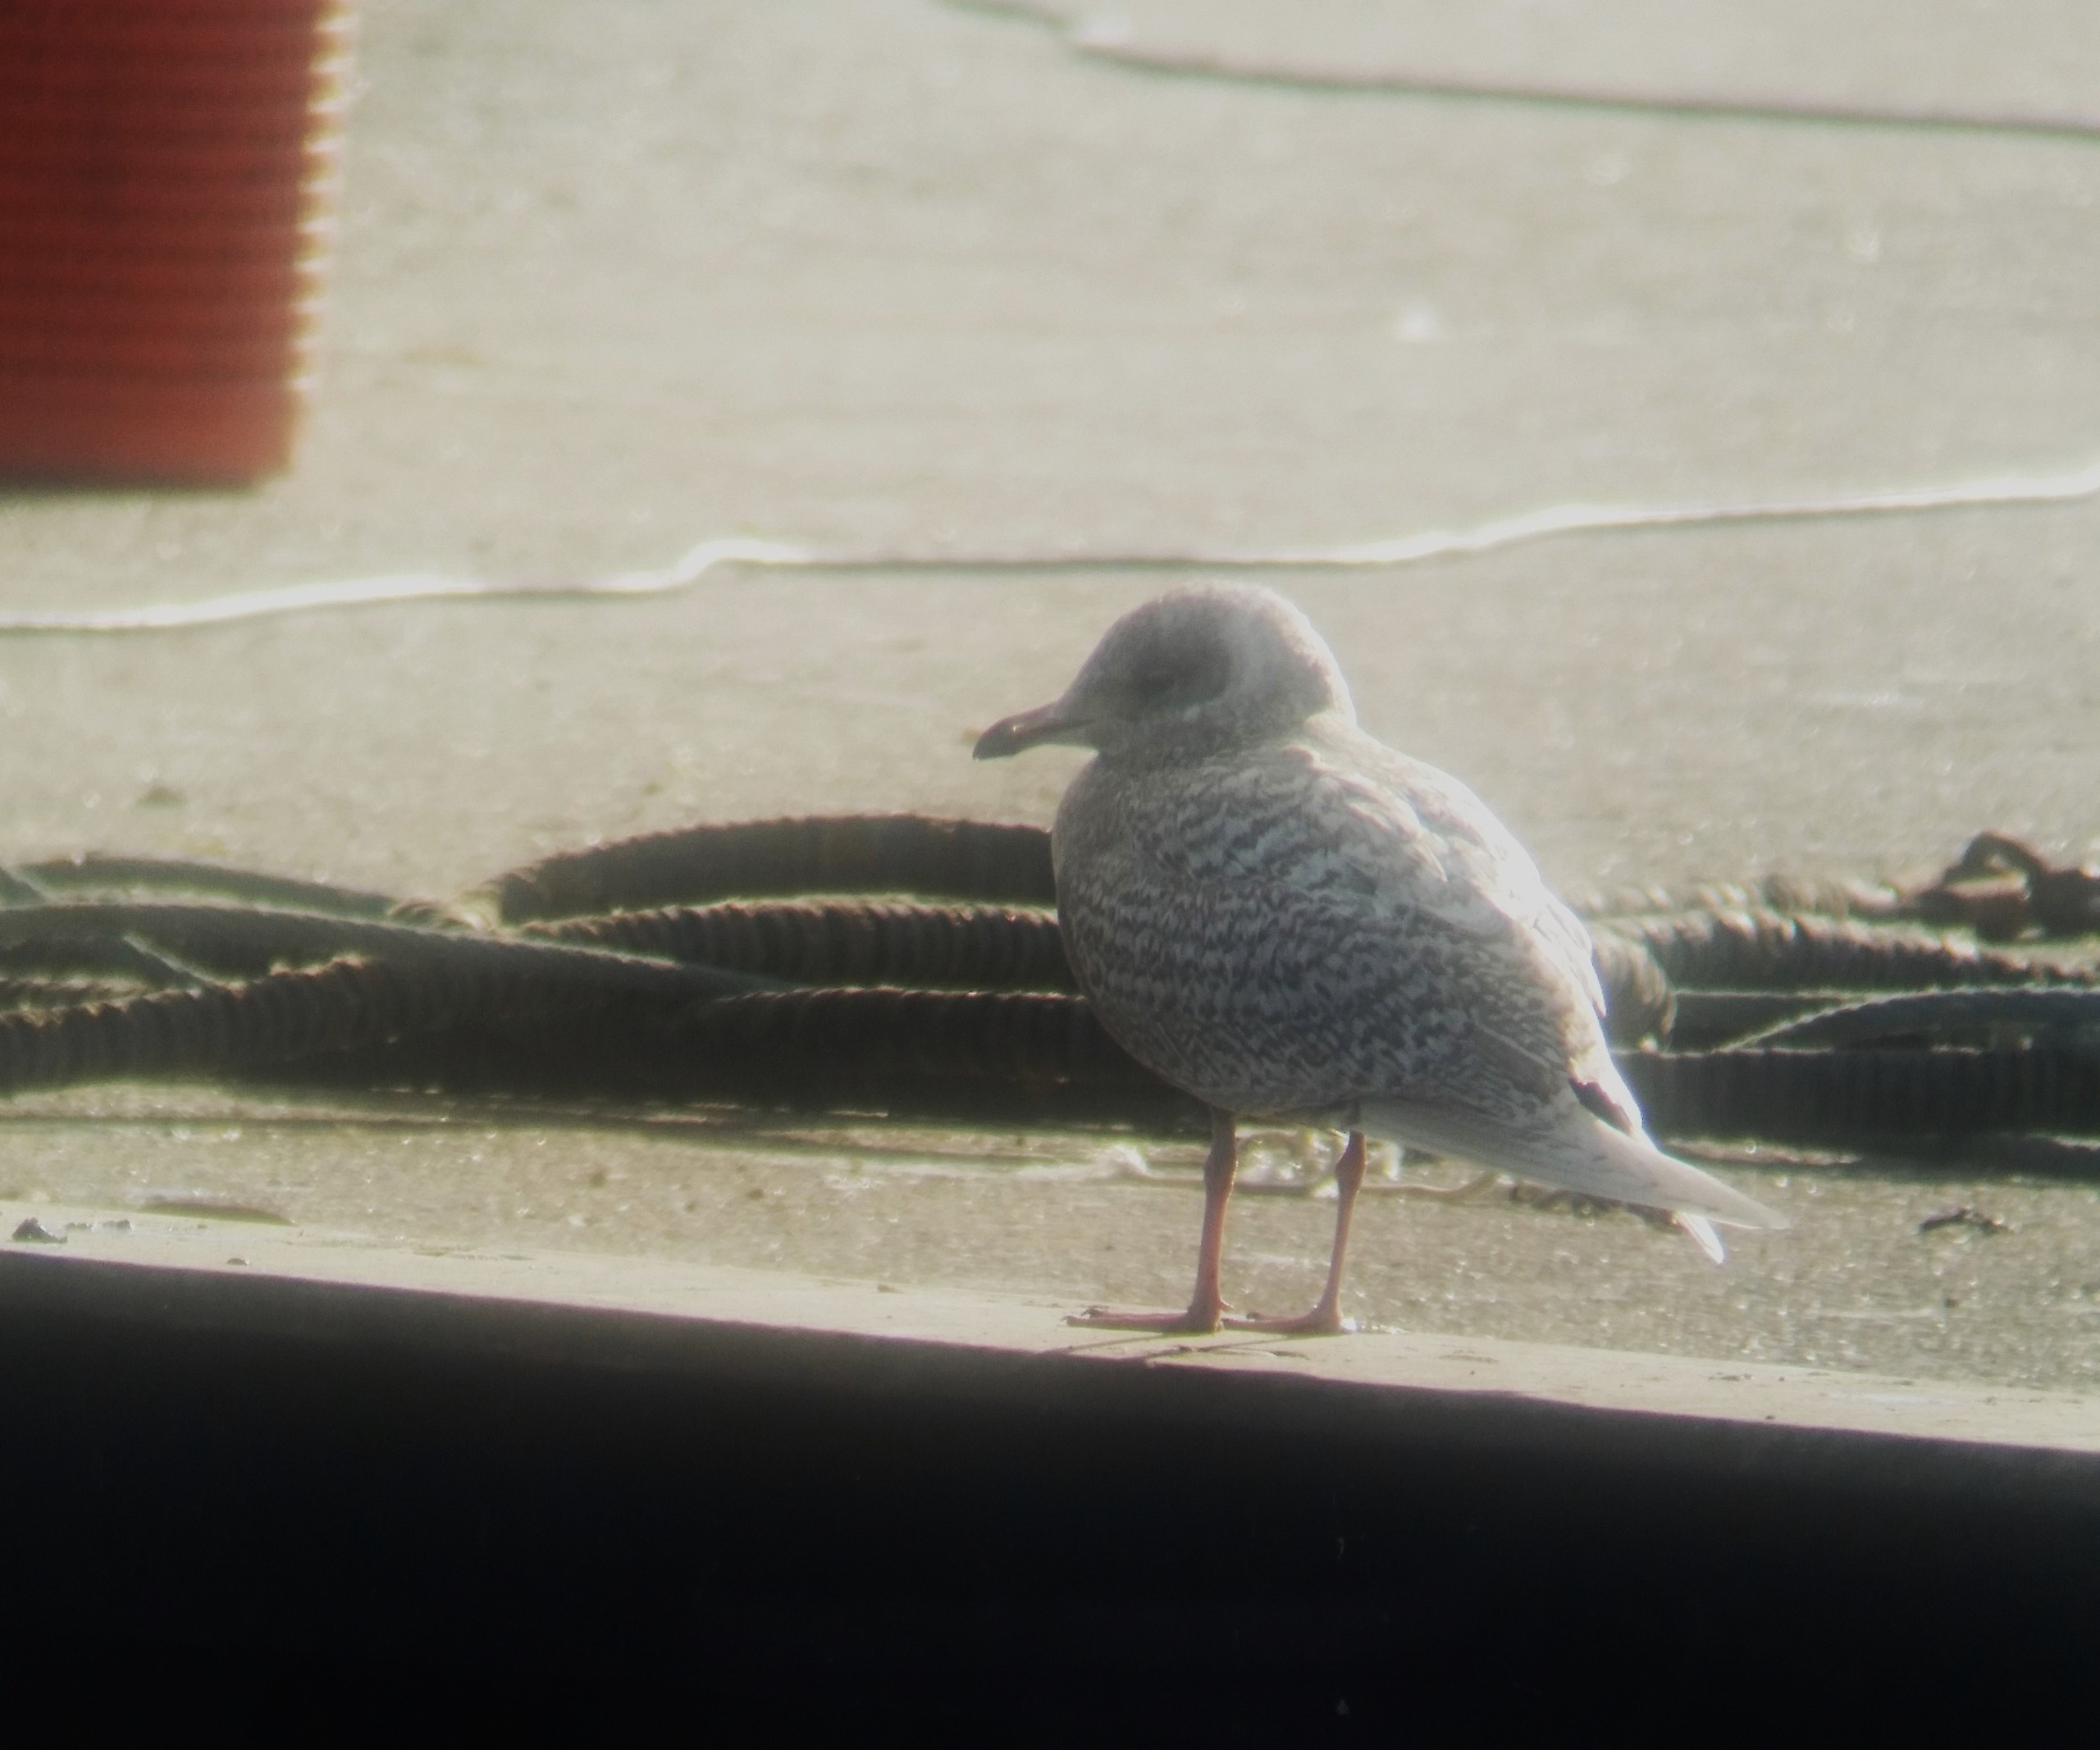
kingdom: Animalia
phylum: Chordata
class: Aves
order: Charadriiformes
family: Laridae
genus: Larus
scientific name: Larus glaucoides
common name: Hvidvinget måge
